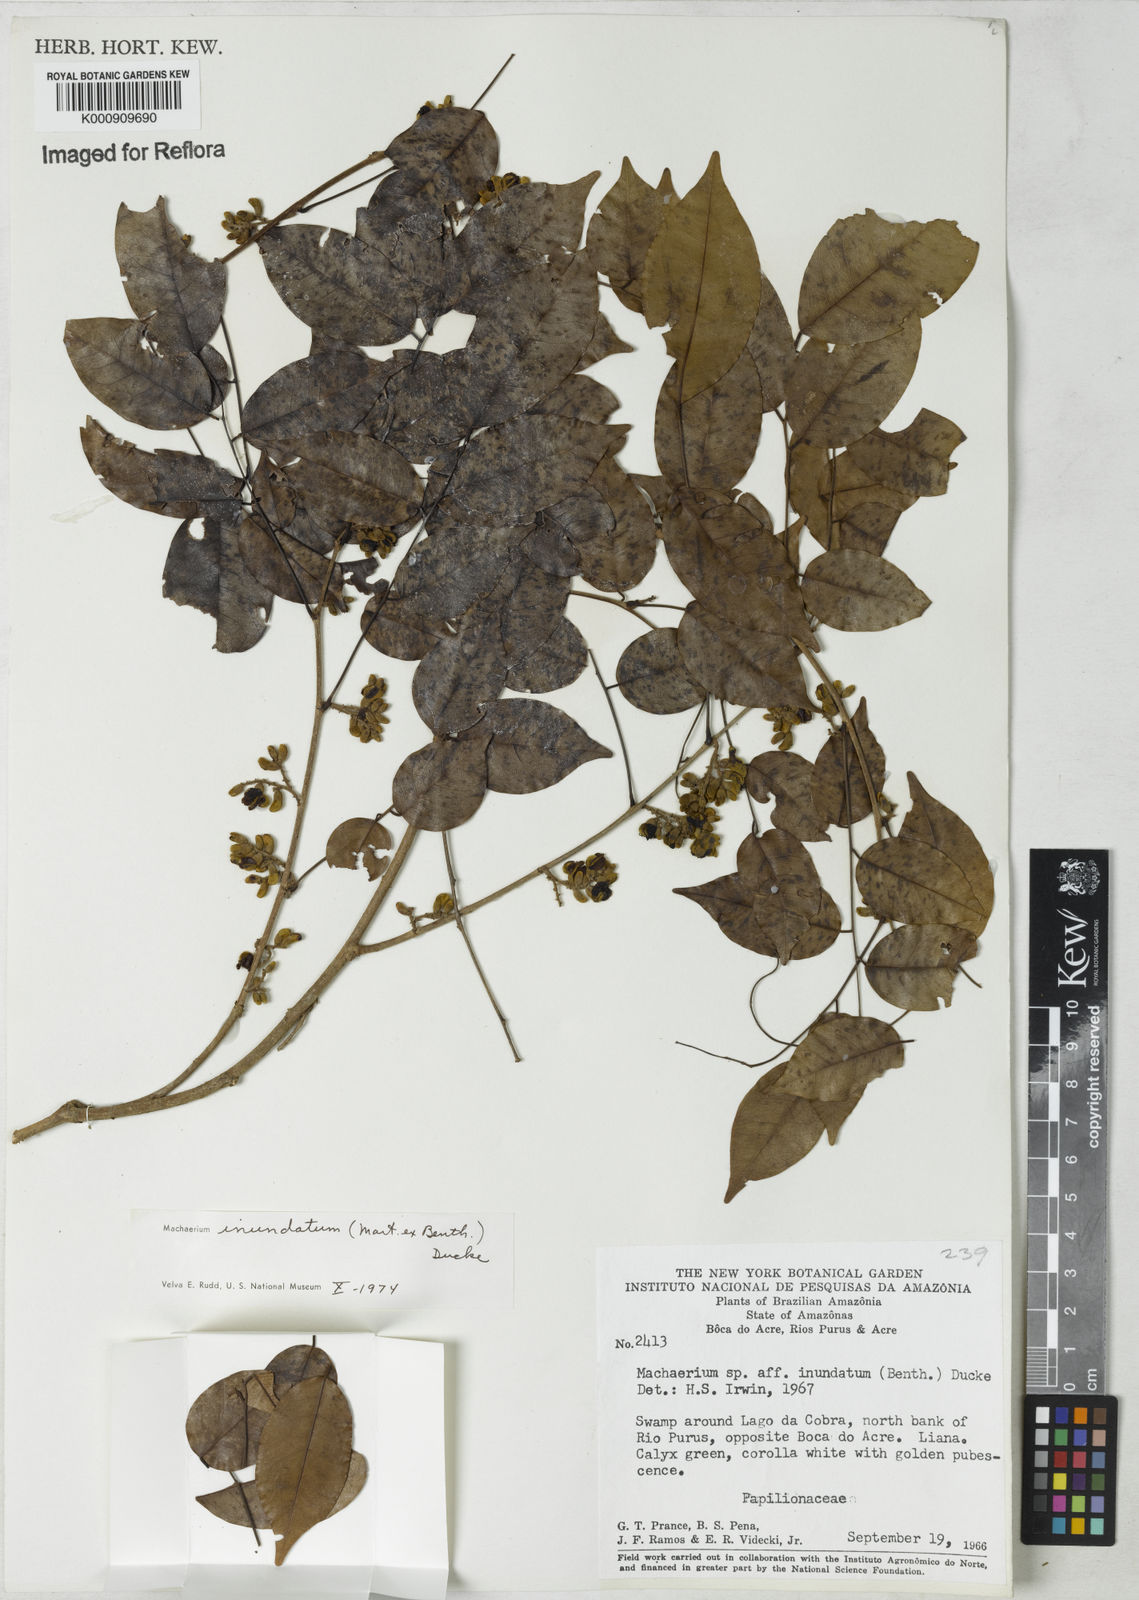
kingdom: Plantae
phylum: Tracheophyta
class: Magnoliopsida
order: Fabales
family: Fabaceae
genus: Machaerium
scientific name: Machaerium inundatum
